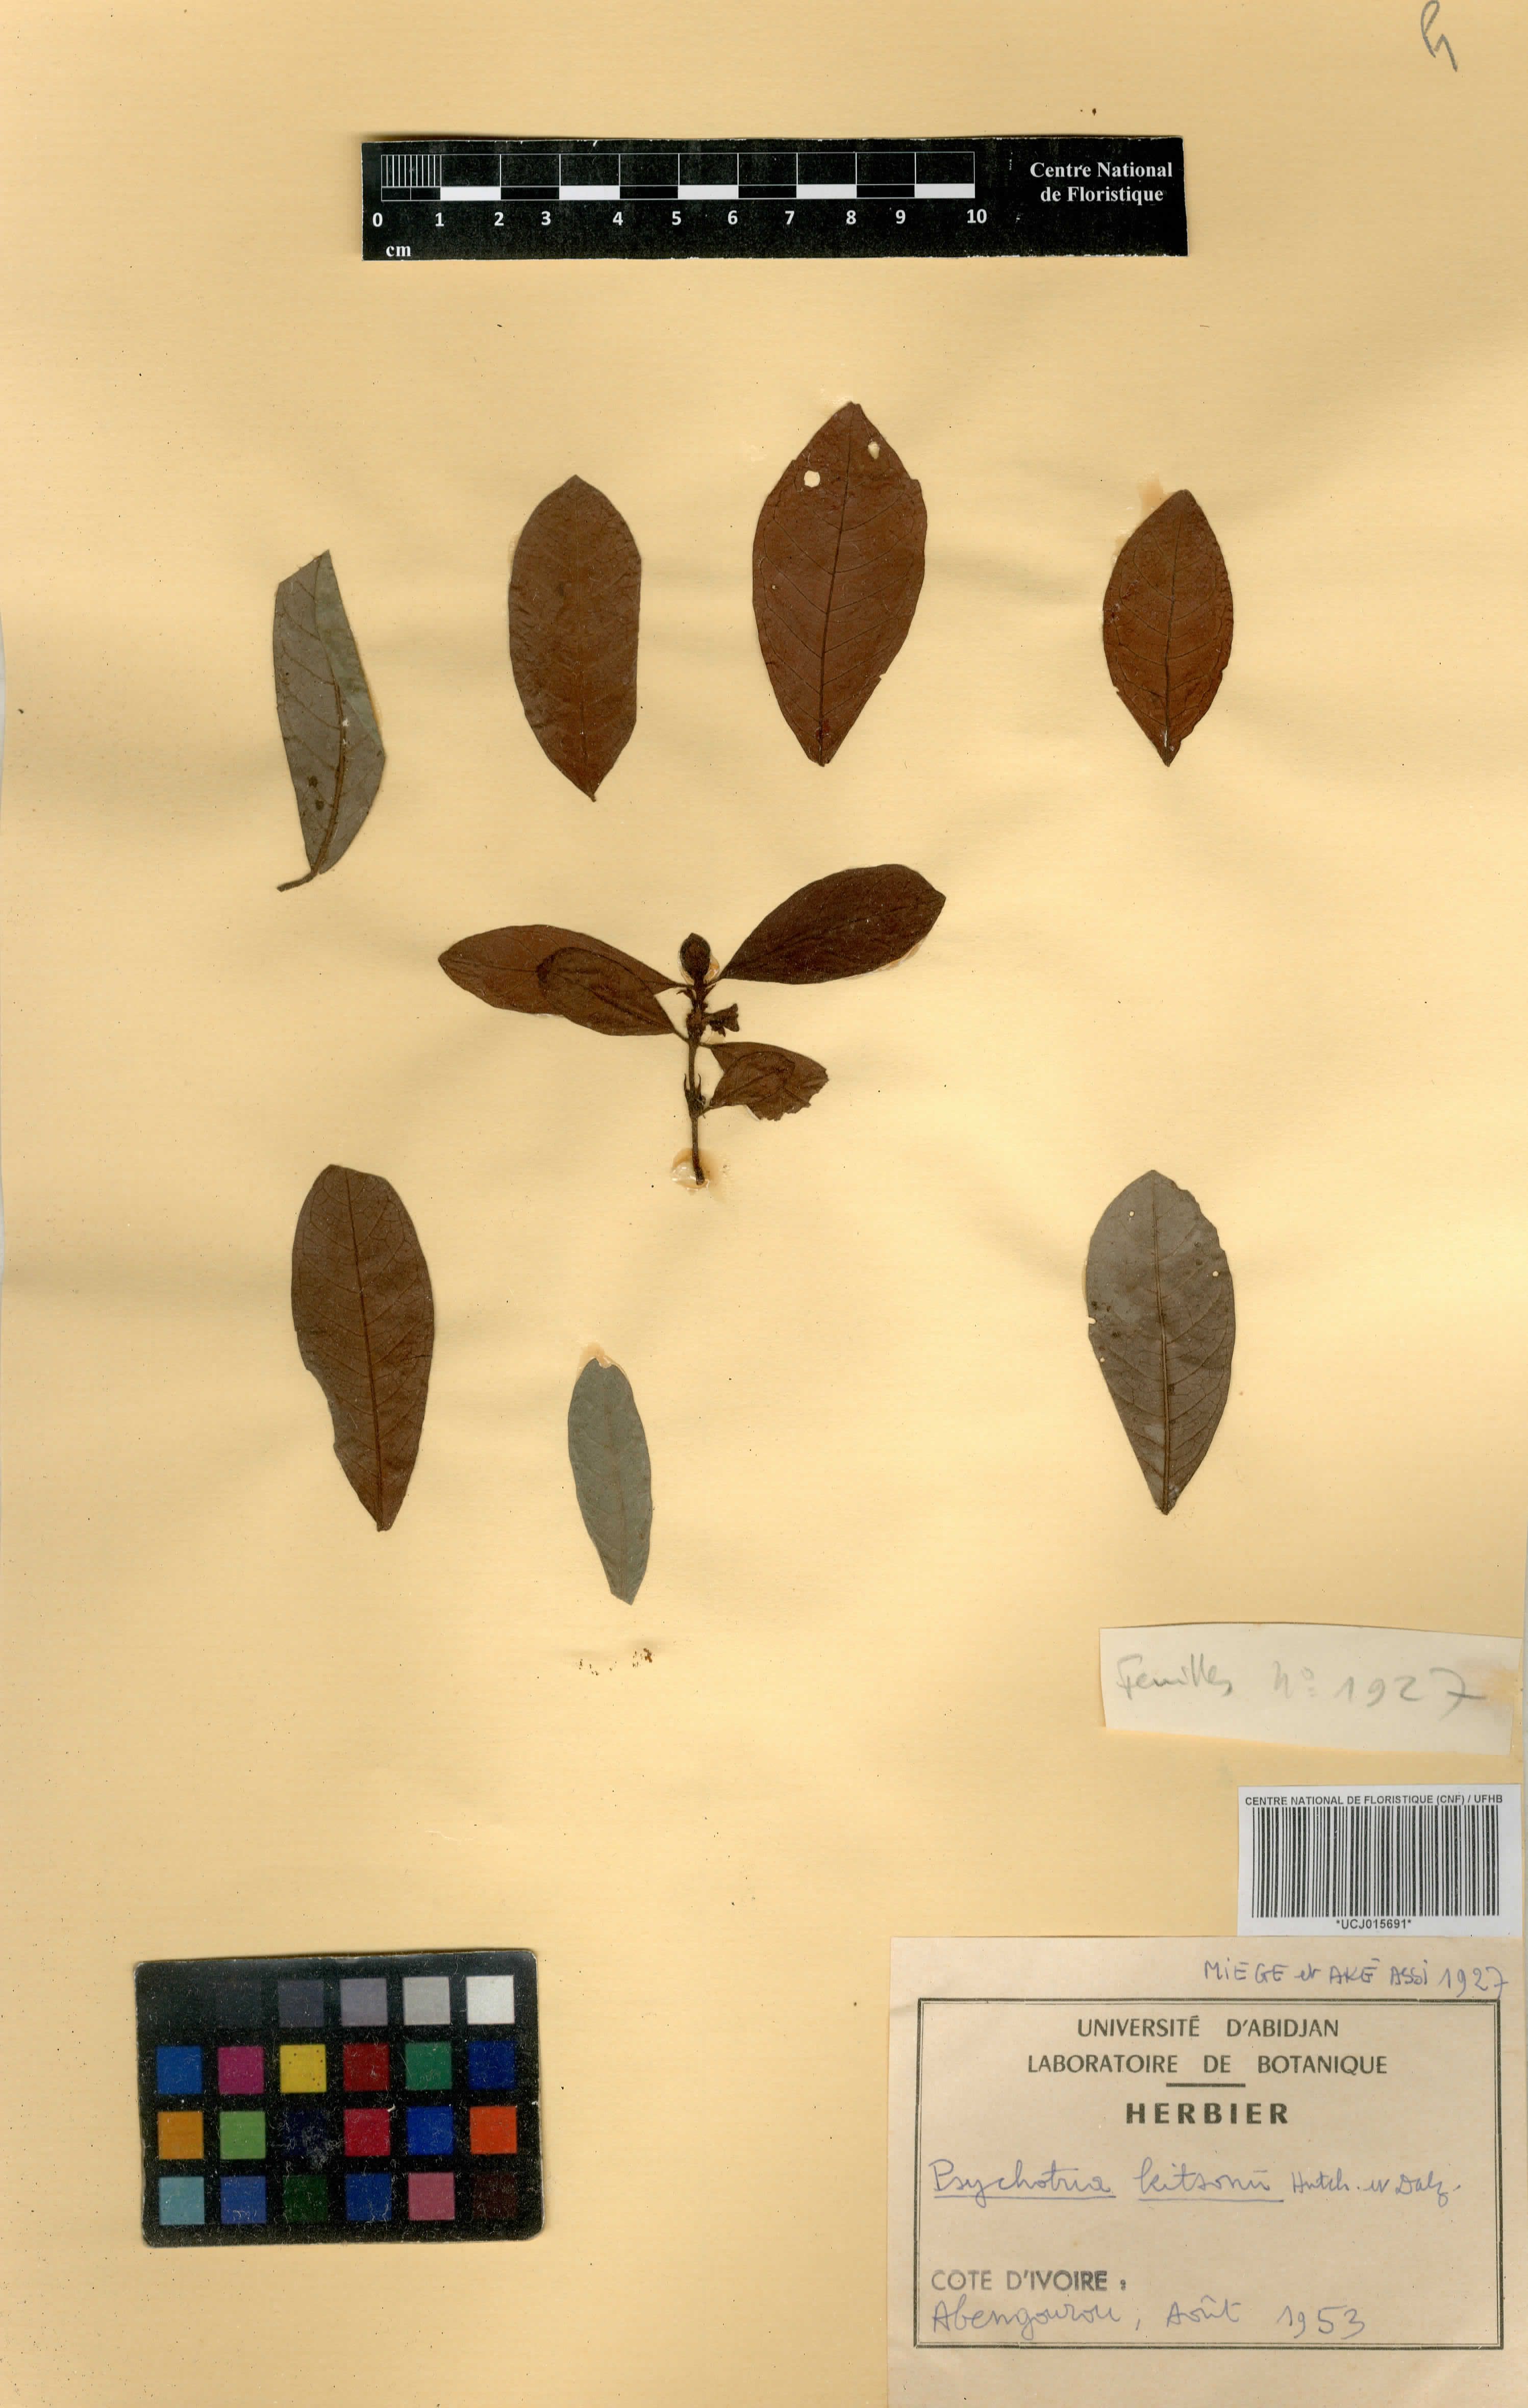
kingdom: Plantae
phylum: Tracheophyta
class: Magnoliopsida
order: Gentianales
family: Rubiaceae
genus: Psychotria
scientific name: Psychotria kitsonii
